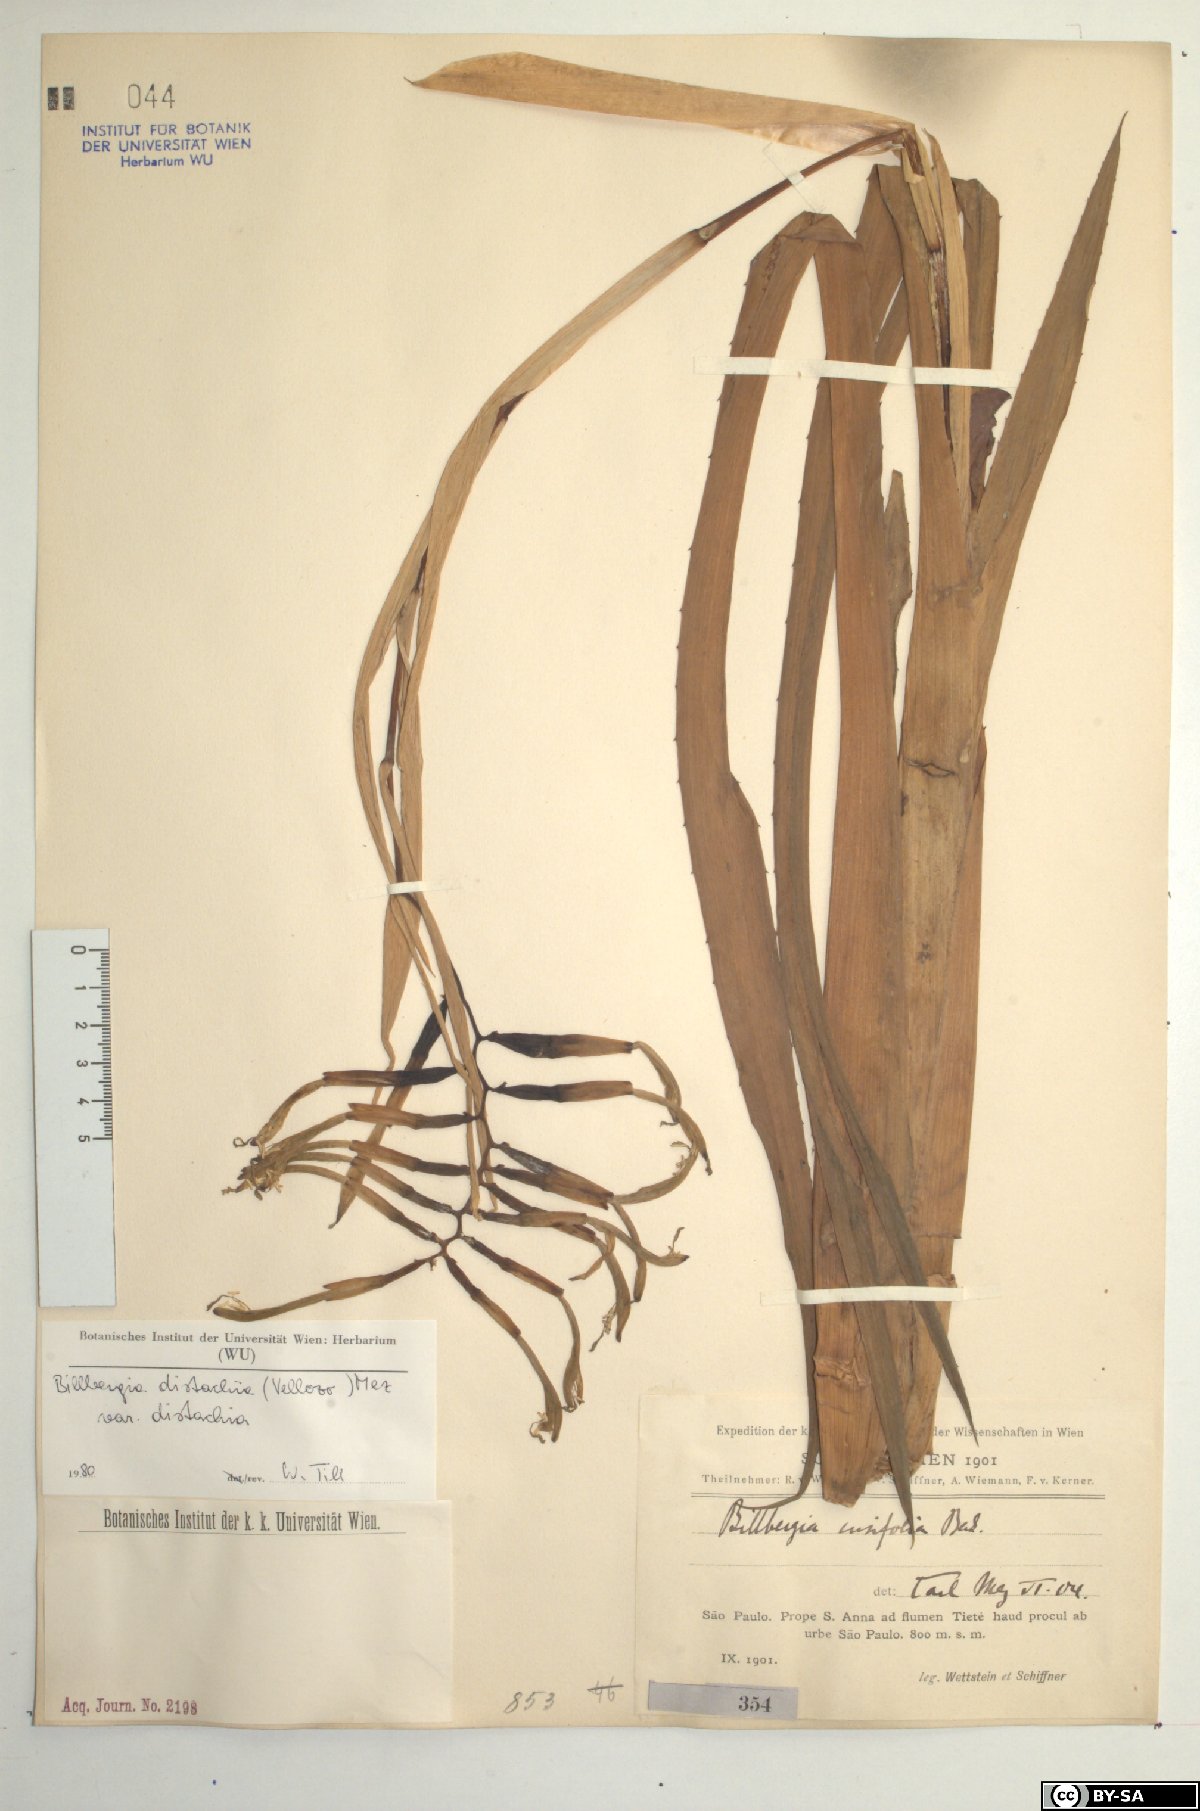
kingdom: Plantae
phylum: Tracheophyta
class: Liliopsida
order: Poales
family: Bromeliaceae
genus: Billbergia
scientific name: Billbergia distachia
